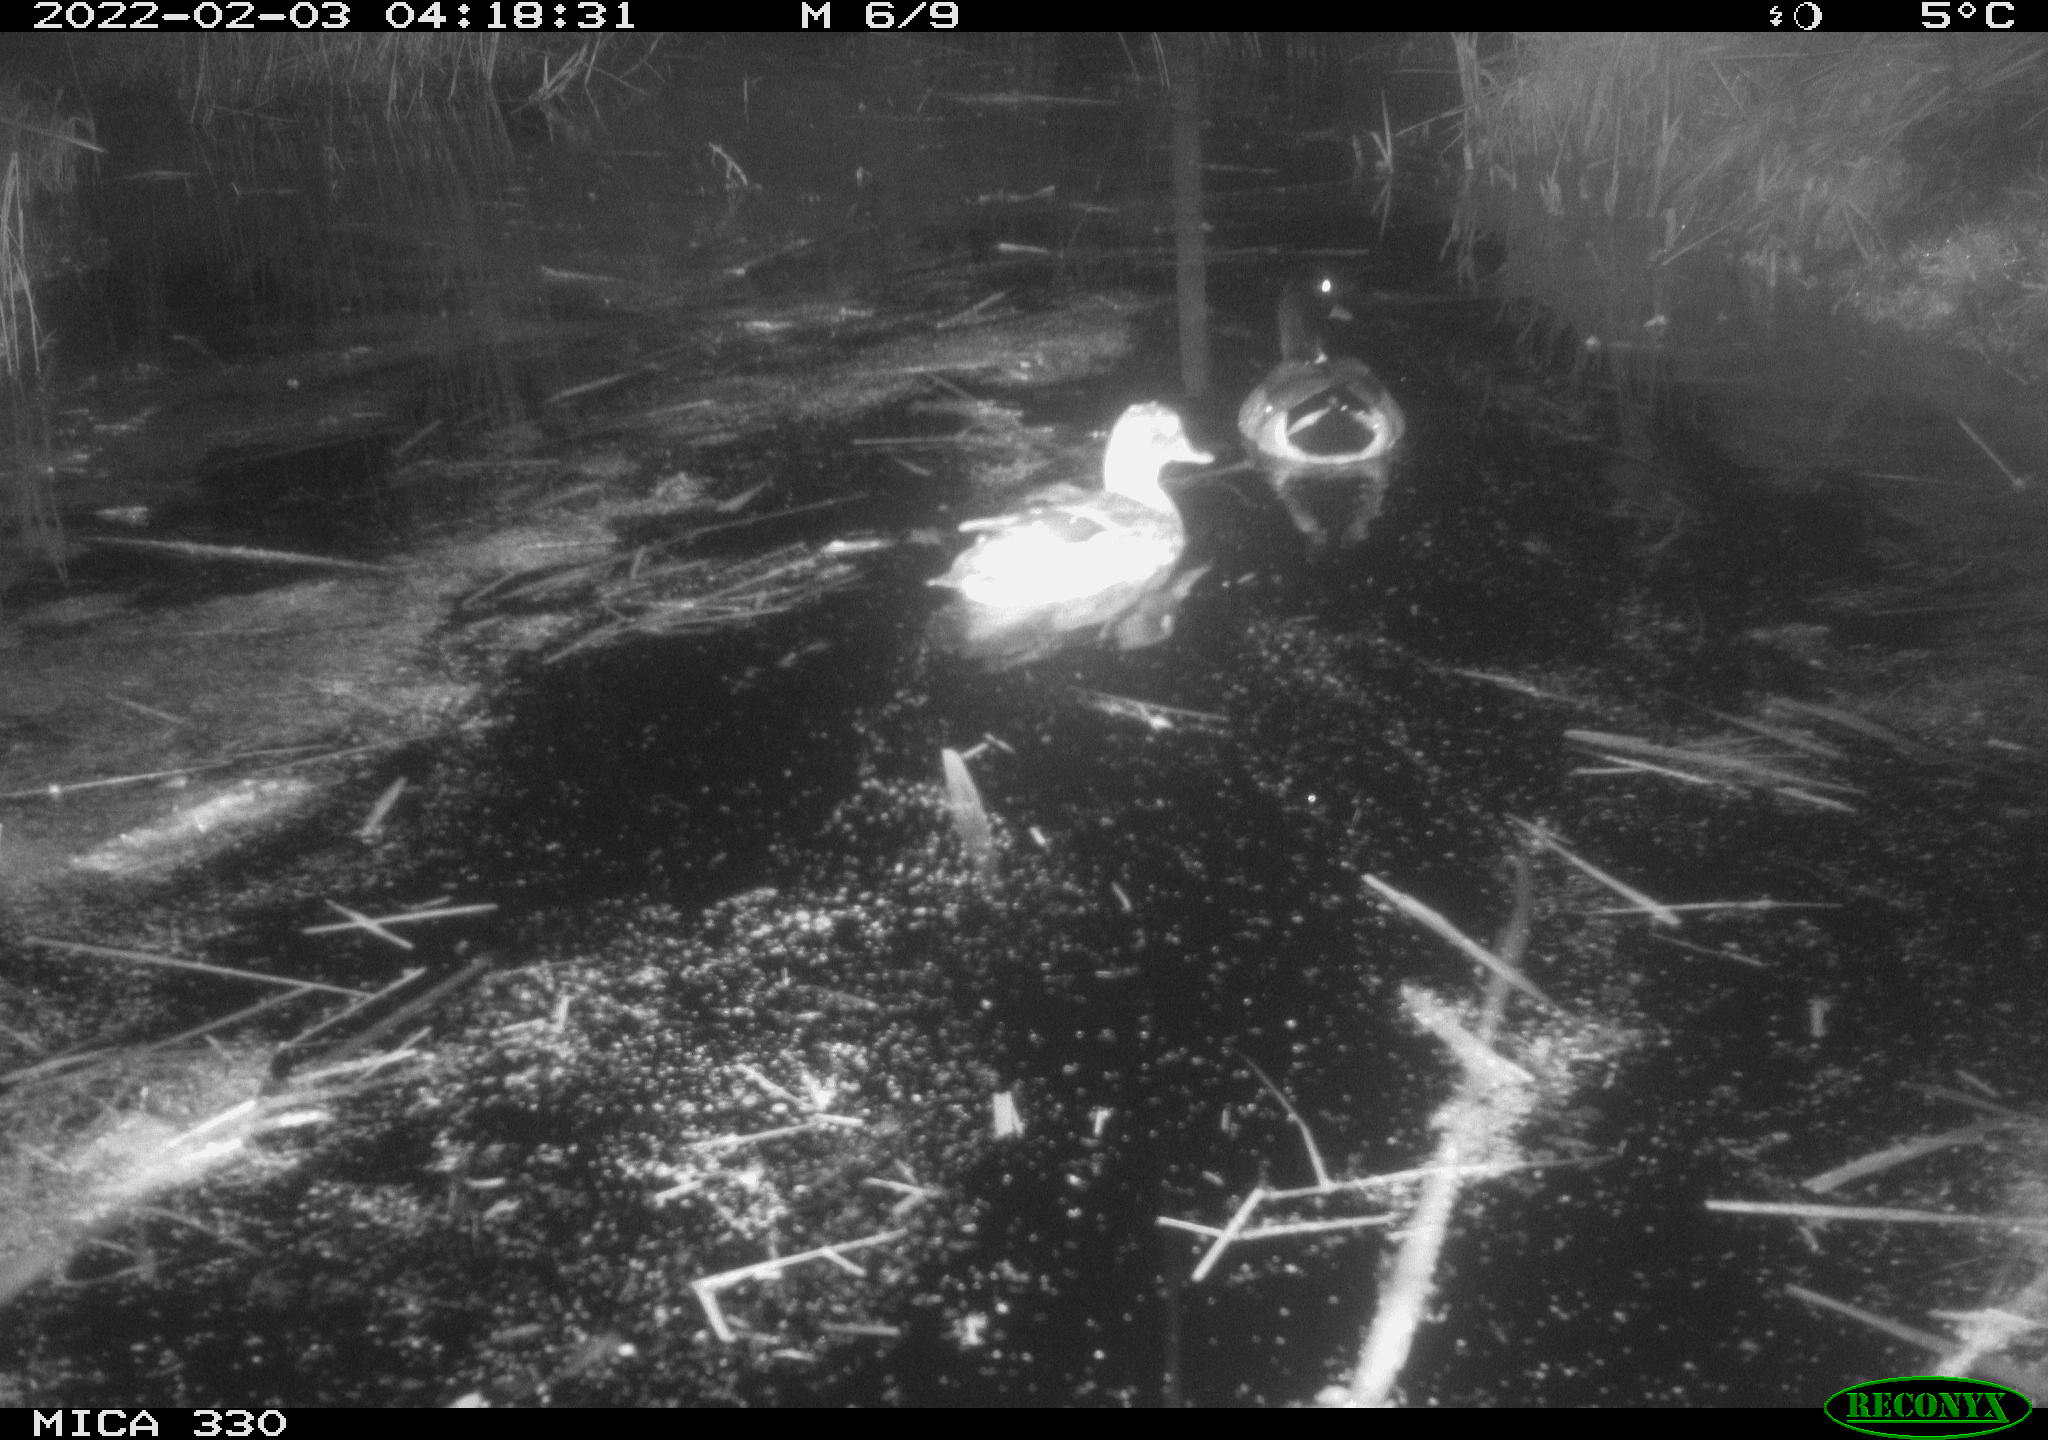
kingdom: Animalia
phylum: Chordata
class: Aves
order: Anseriformes
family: Anatidae
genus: Anas
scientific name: Anas platyrhynchos
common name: Mallard
